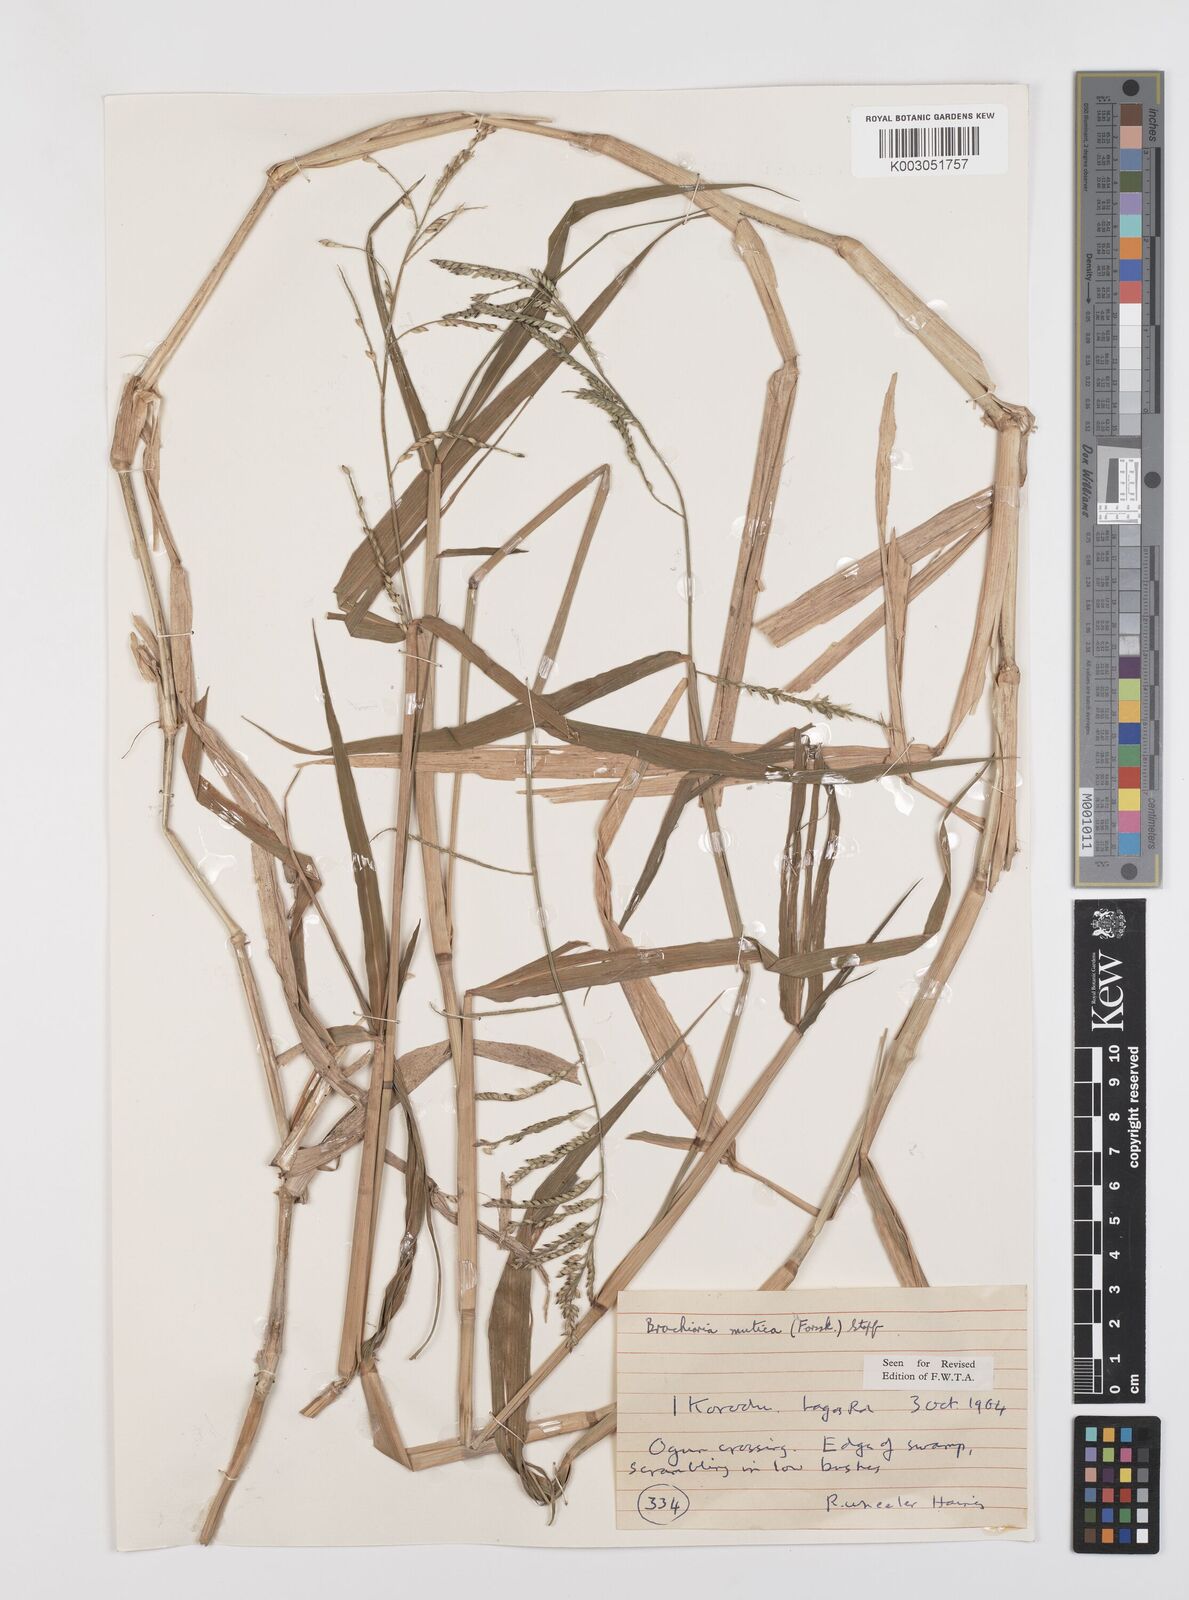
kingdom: Plantae
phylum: Tracheophyta
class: Liliopsida
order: Poales
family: Poaceae
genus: Urochloa
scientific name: Urochloa arrecta
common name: African signalgrass
